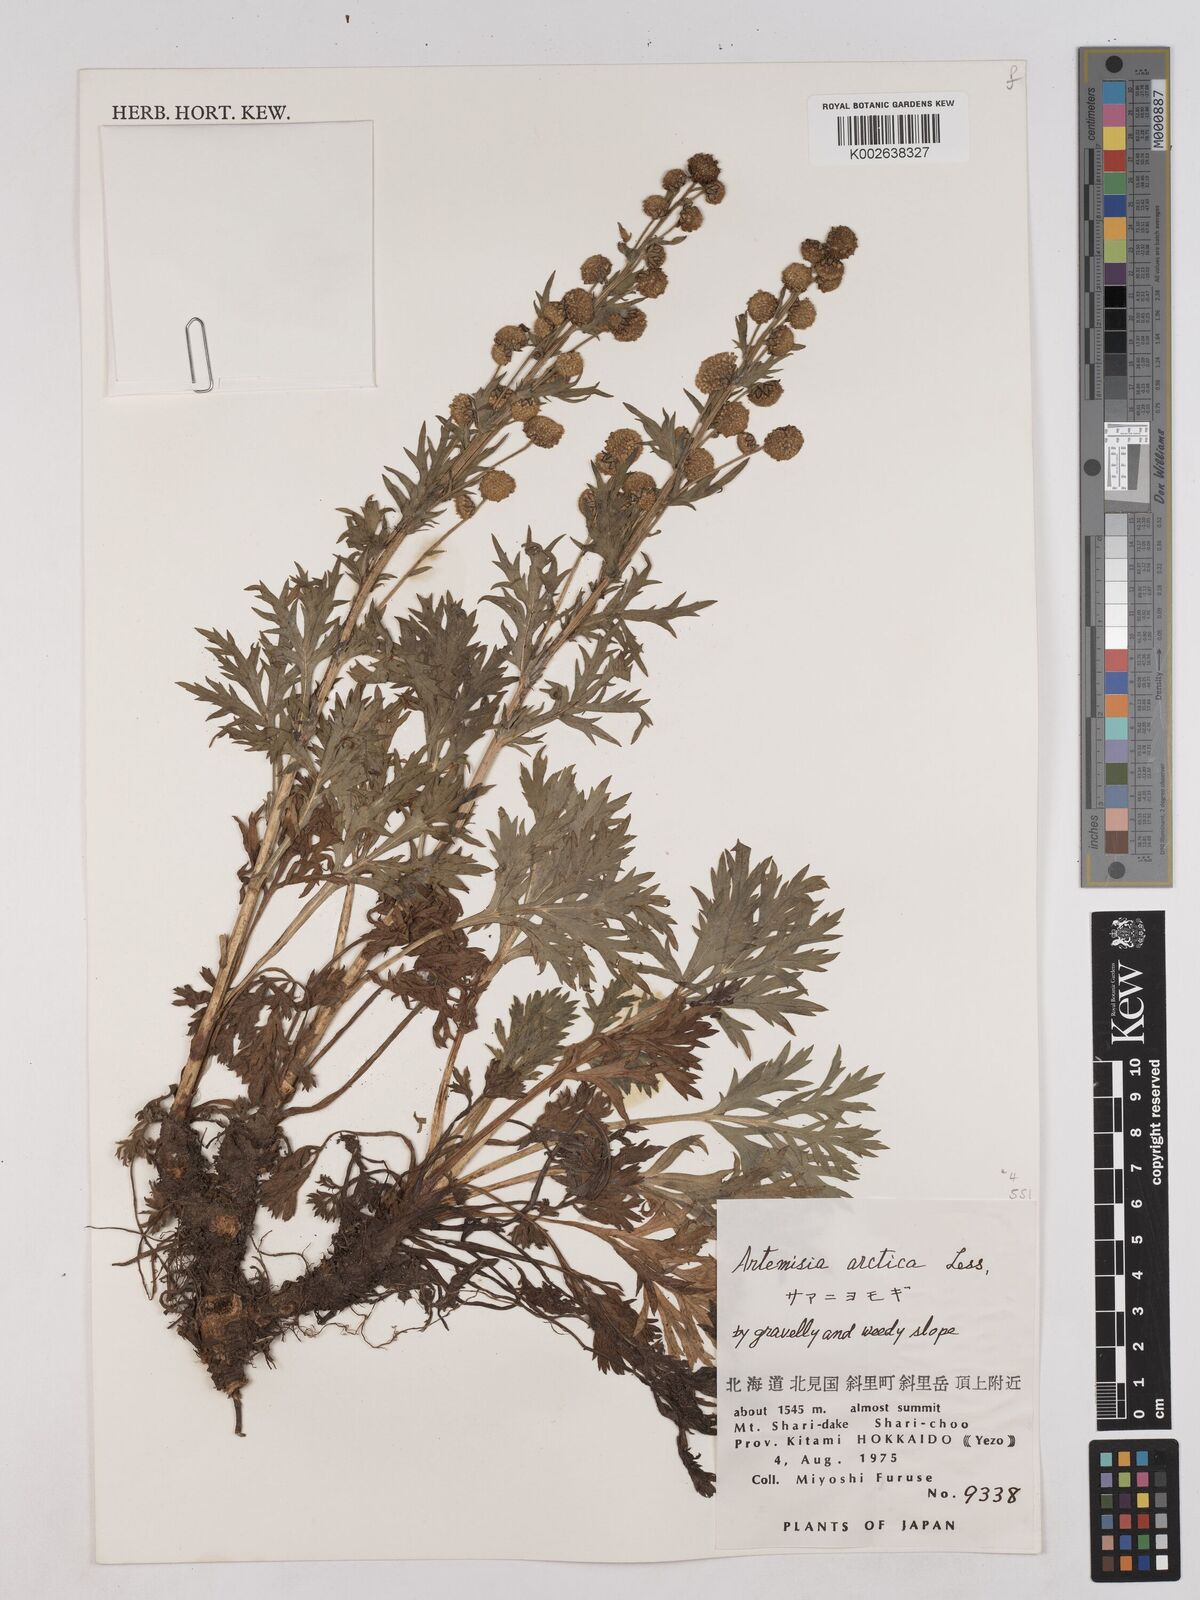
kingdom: Plantae
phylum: Tracheophyta
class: Magnoliopsida
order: Asterales
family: Asteraceae
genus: Artemisia
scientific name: Artemisia norvegica
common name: Norwegian mugwort
